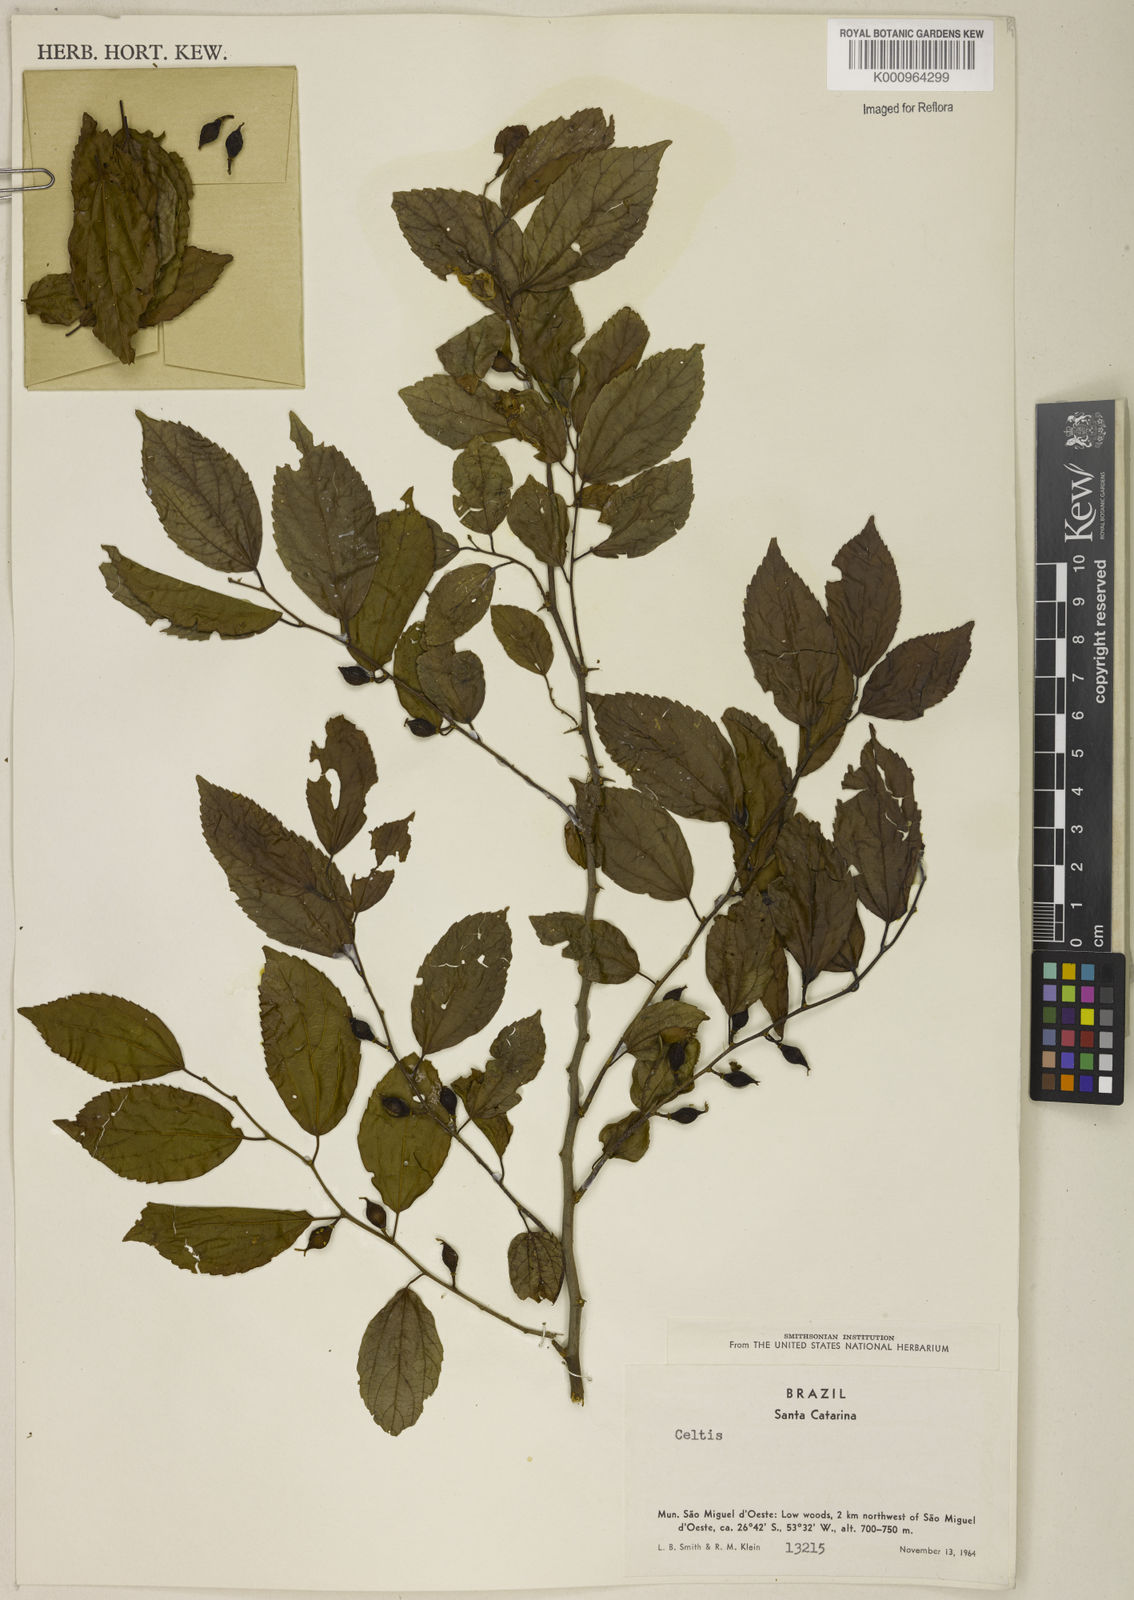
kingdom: Plantae
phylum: Tracheophyta
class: Magnoliopsida
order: Rosales
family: Cannabaceae
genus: Celtis
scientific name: Celtis
